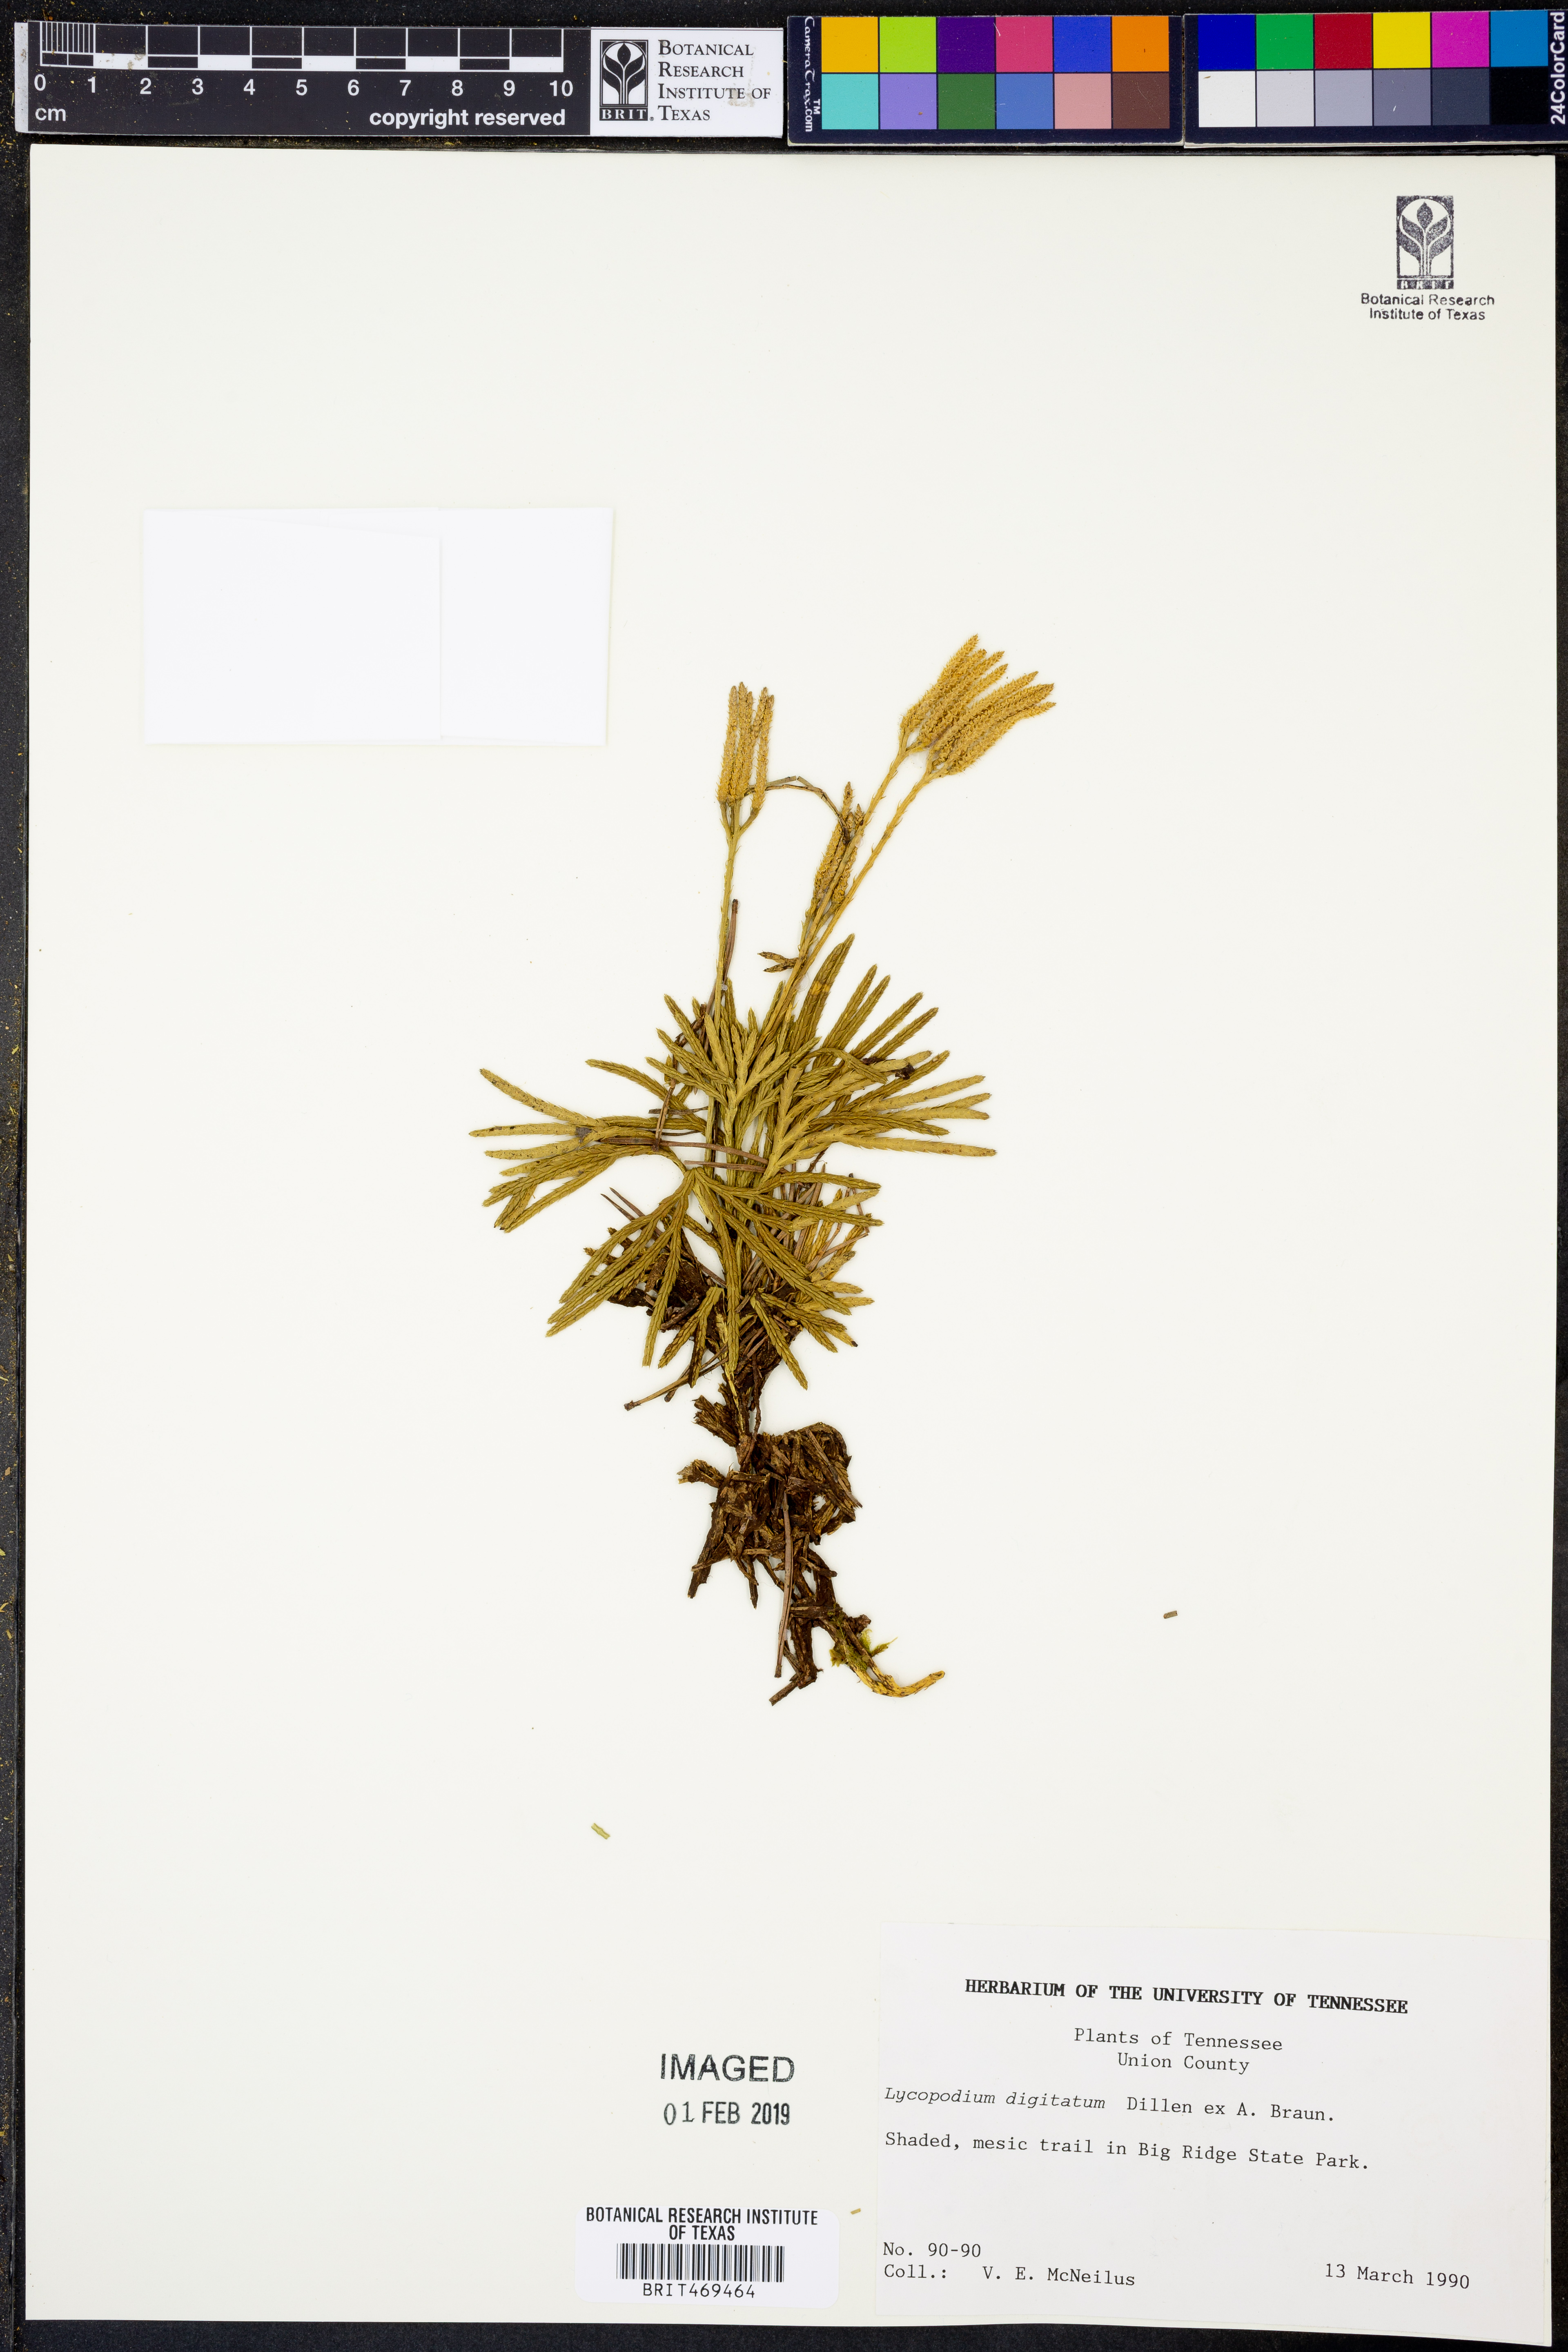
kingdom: Plantae
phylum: Tracheophyta
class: Lycopodiopsida
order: Lycopodiales
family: Lycopodiaceae
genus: Diphasiastrum
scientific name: Diphasiastrum digitatum
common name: Southern running-pine
